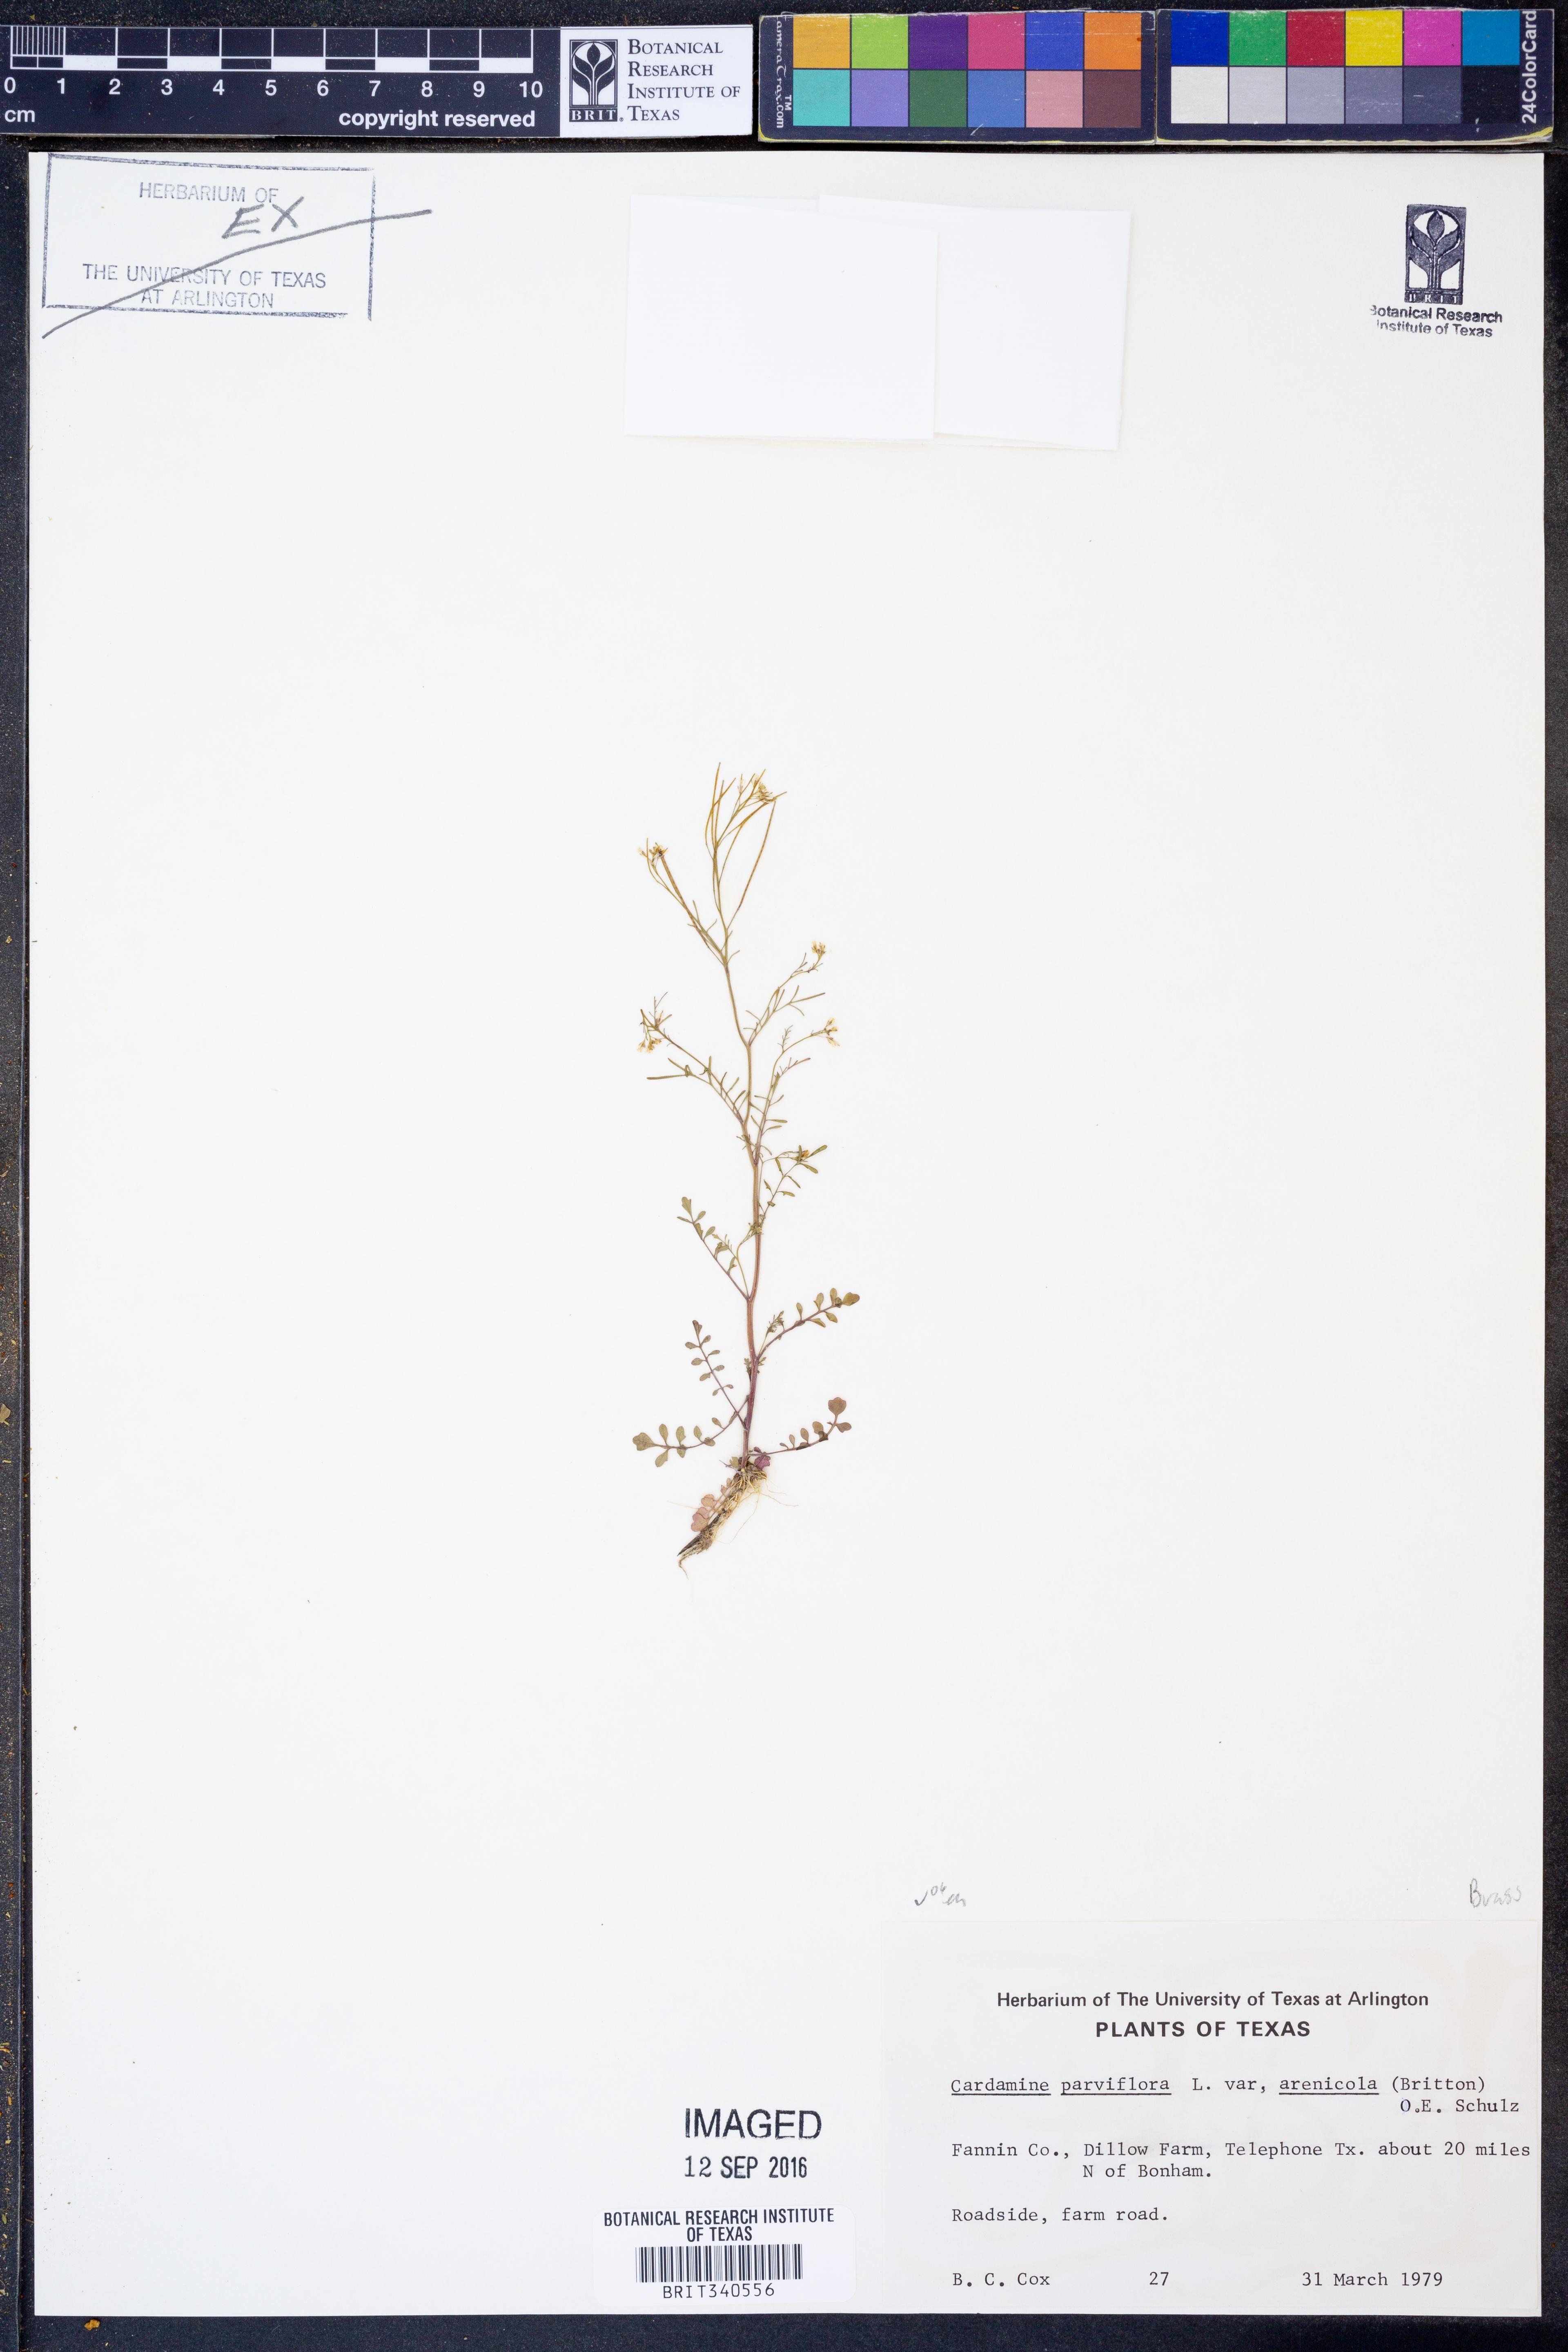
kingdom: Plantae
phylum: Tracheophyta
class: Magnoliopsida
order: Brassicales
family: Brassicaceae
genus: Cardamine
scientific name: Cardamine parviflora
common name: Sand bittercress
